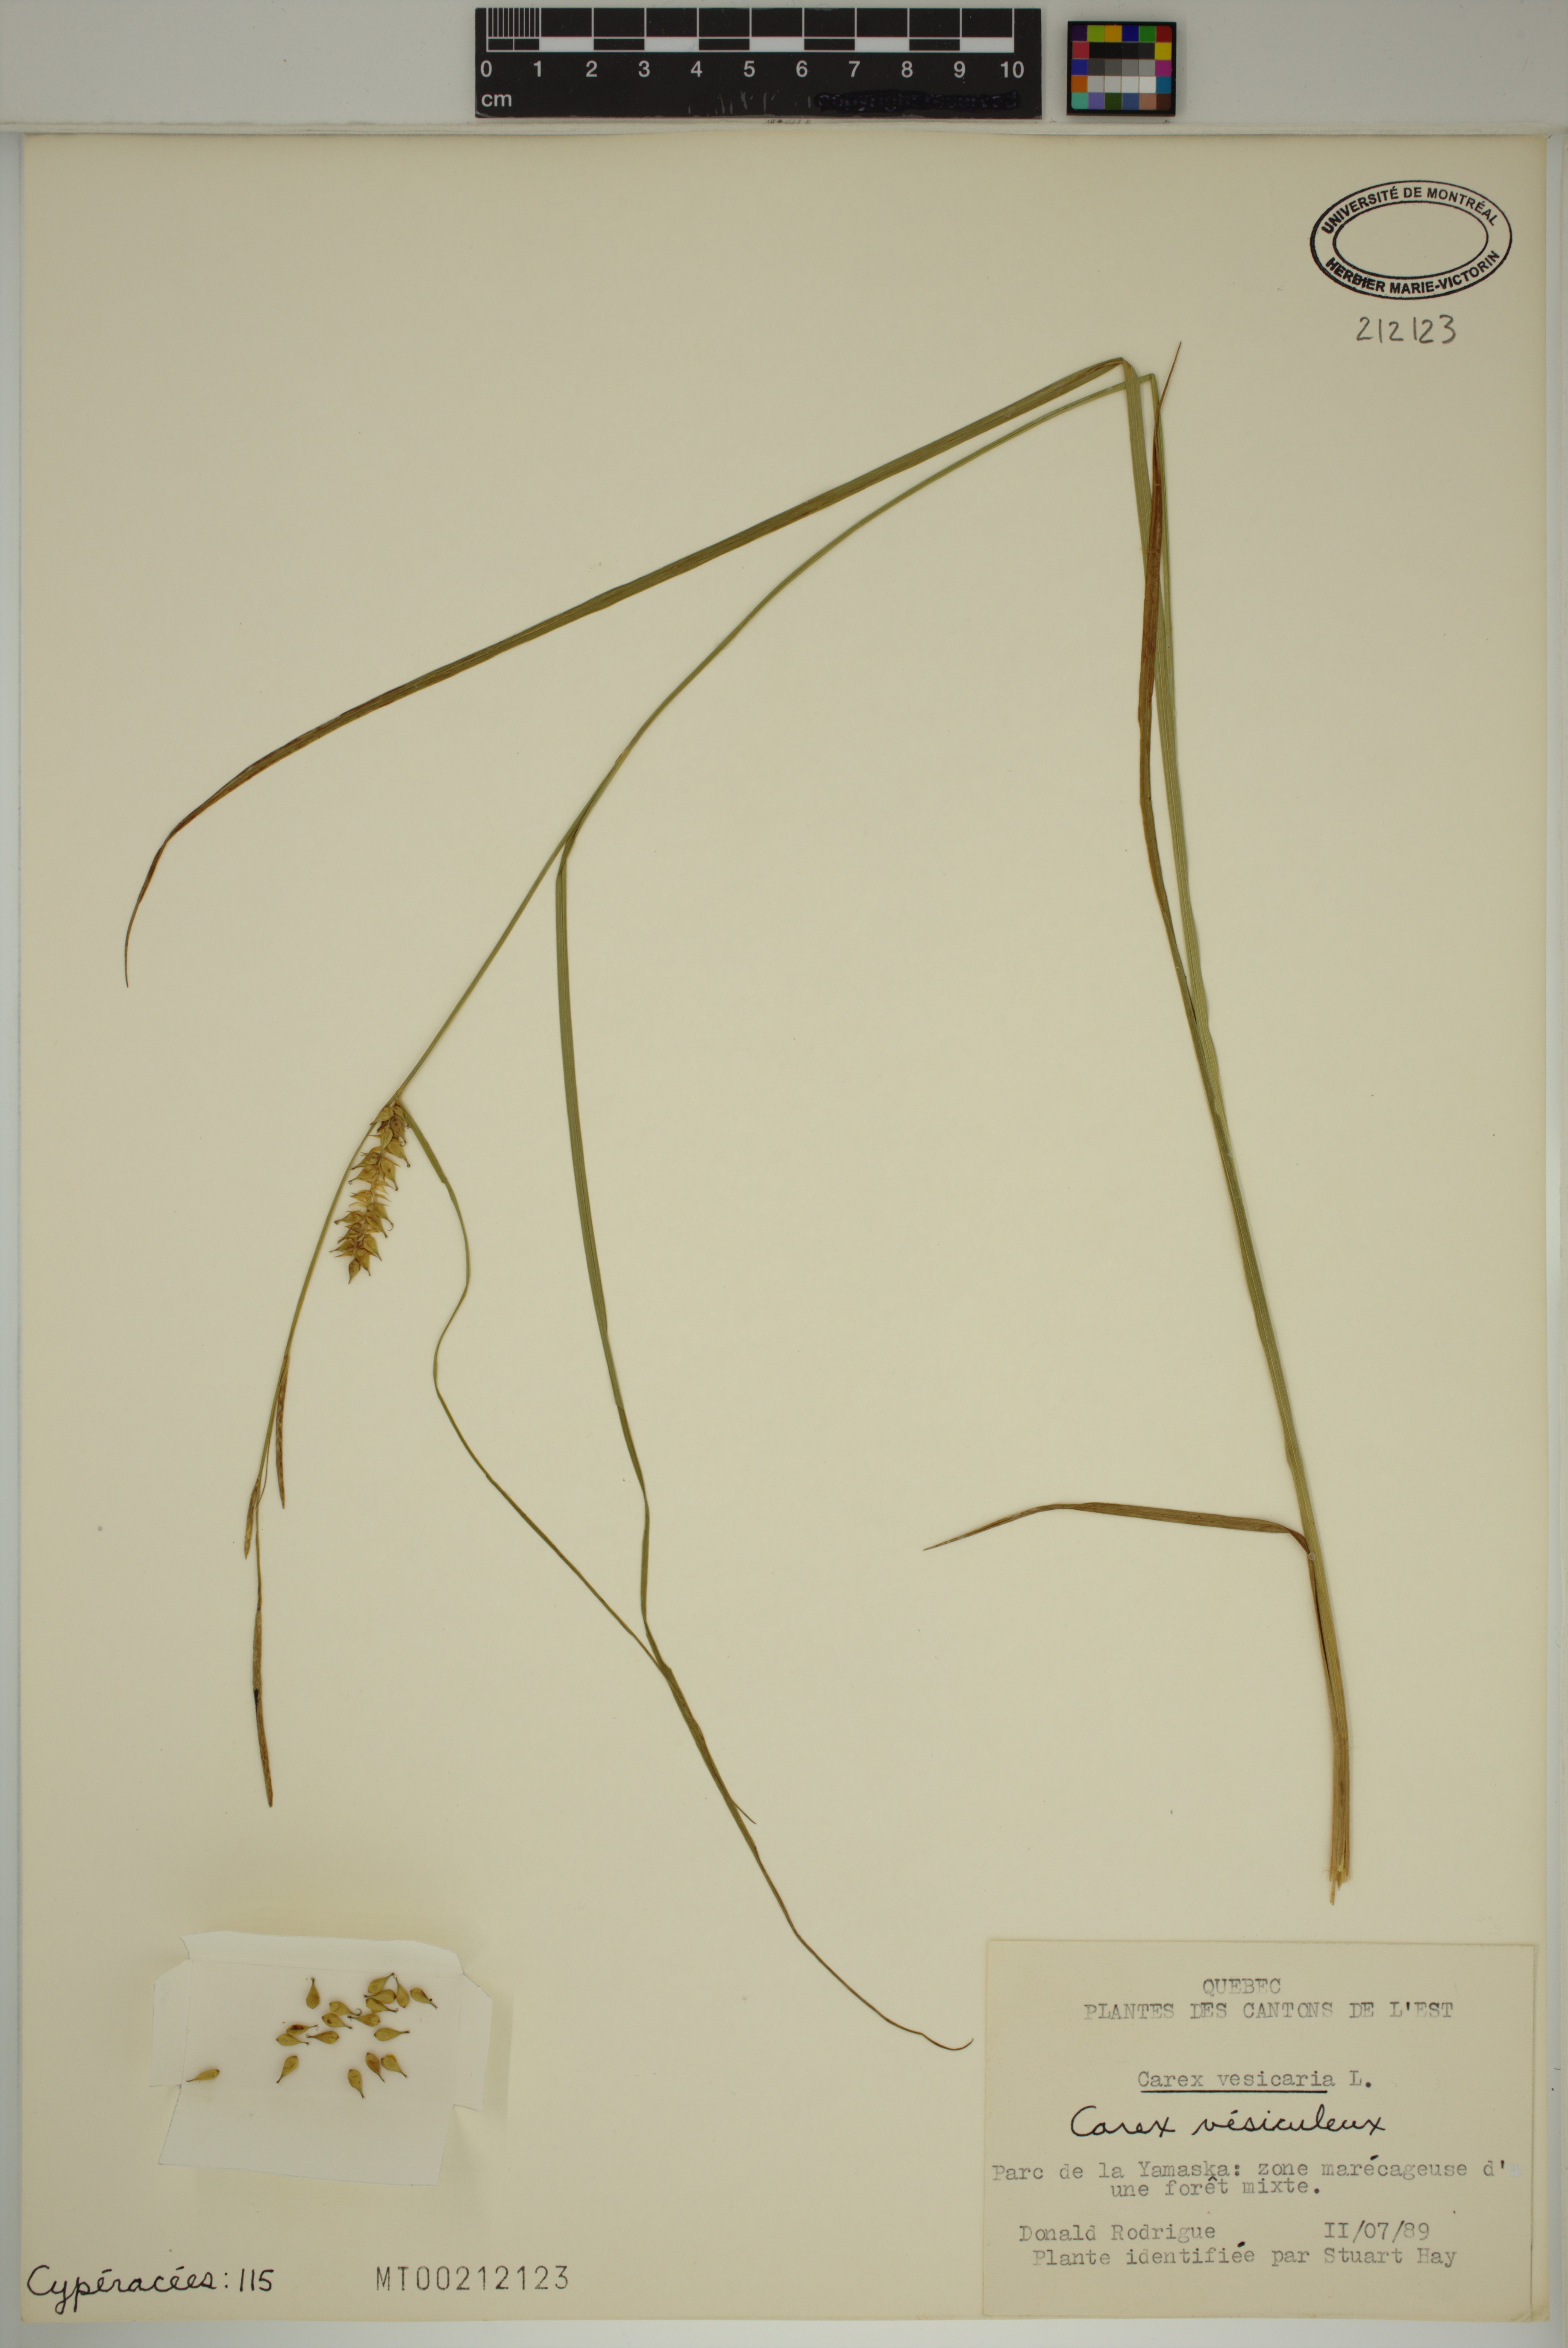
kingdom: Plantae
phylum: Tracheophyta
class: Liliopsida
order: Poales
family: Cyperaceae
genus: Carex
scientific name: Carex vesicaria
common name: Bladder-sedge
